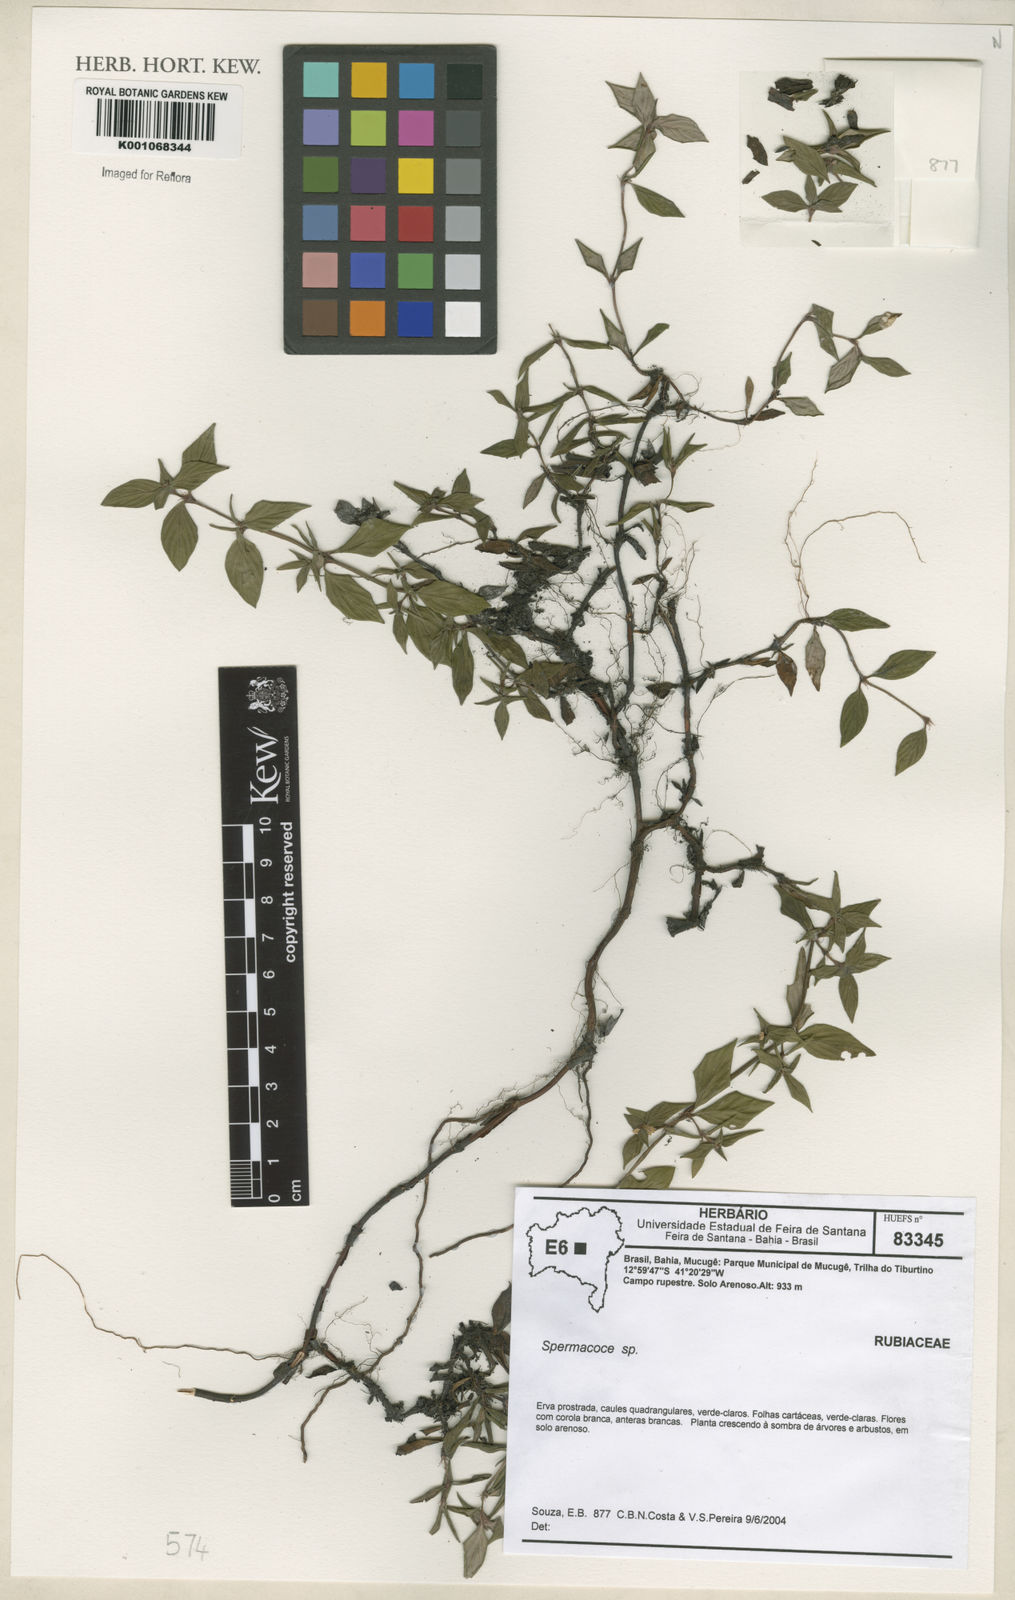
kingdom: Plantae
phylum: Tracheophyta
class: Magnoliopsida
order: Gentianales
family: Rubiaceae
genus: Spermacoce
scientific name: Spermacoce
